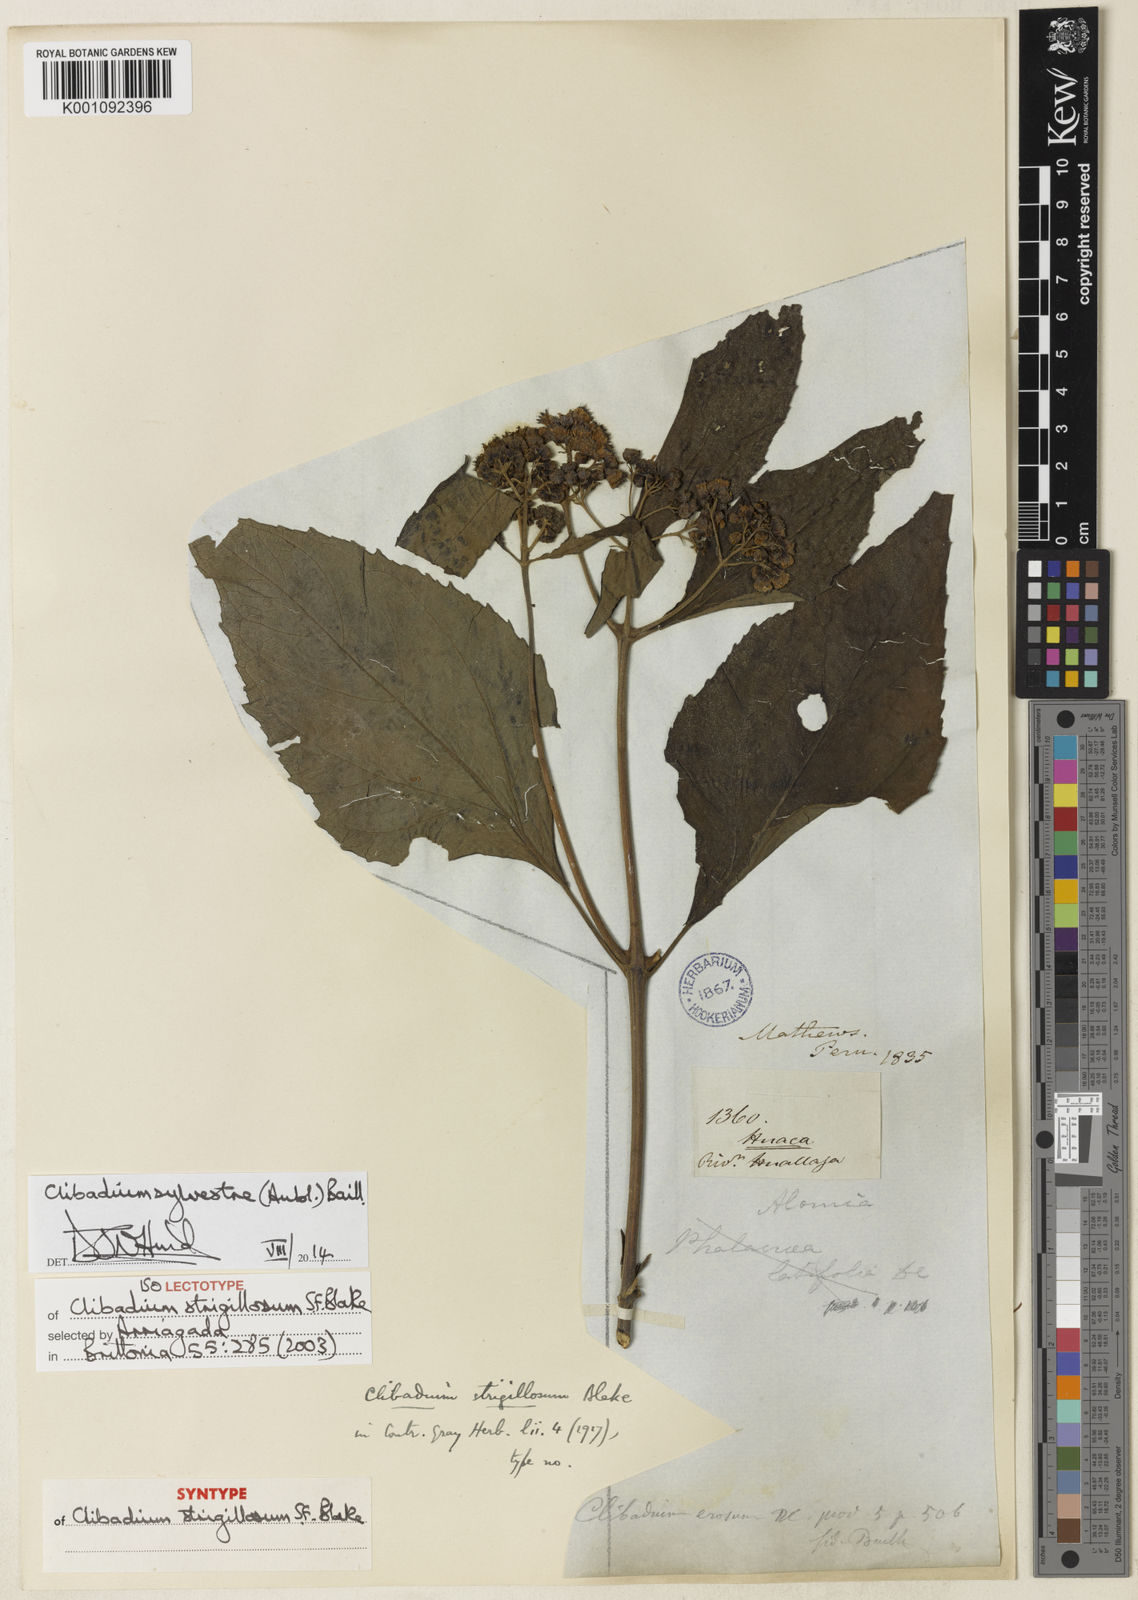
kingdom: Plantae
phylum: Tracheophyta
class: Magnoliopsida
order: Asterales
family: Asteraceae
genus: Clibadium
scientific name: Clibadium sylvestre
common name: Barbasco
